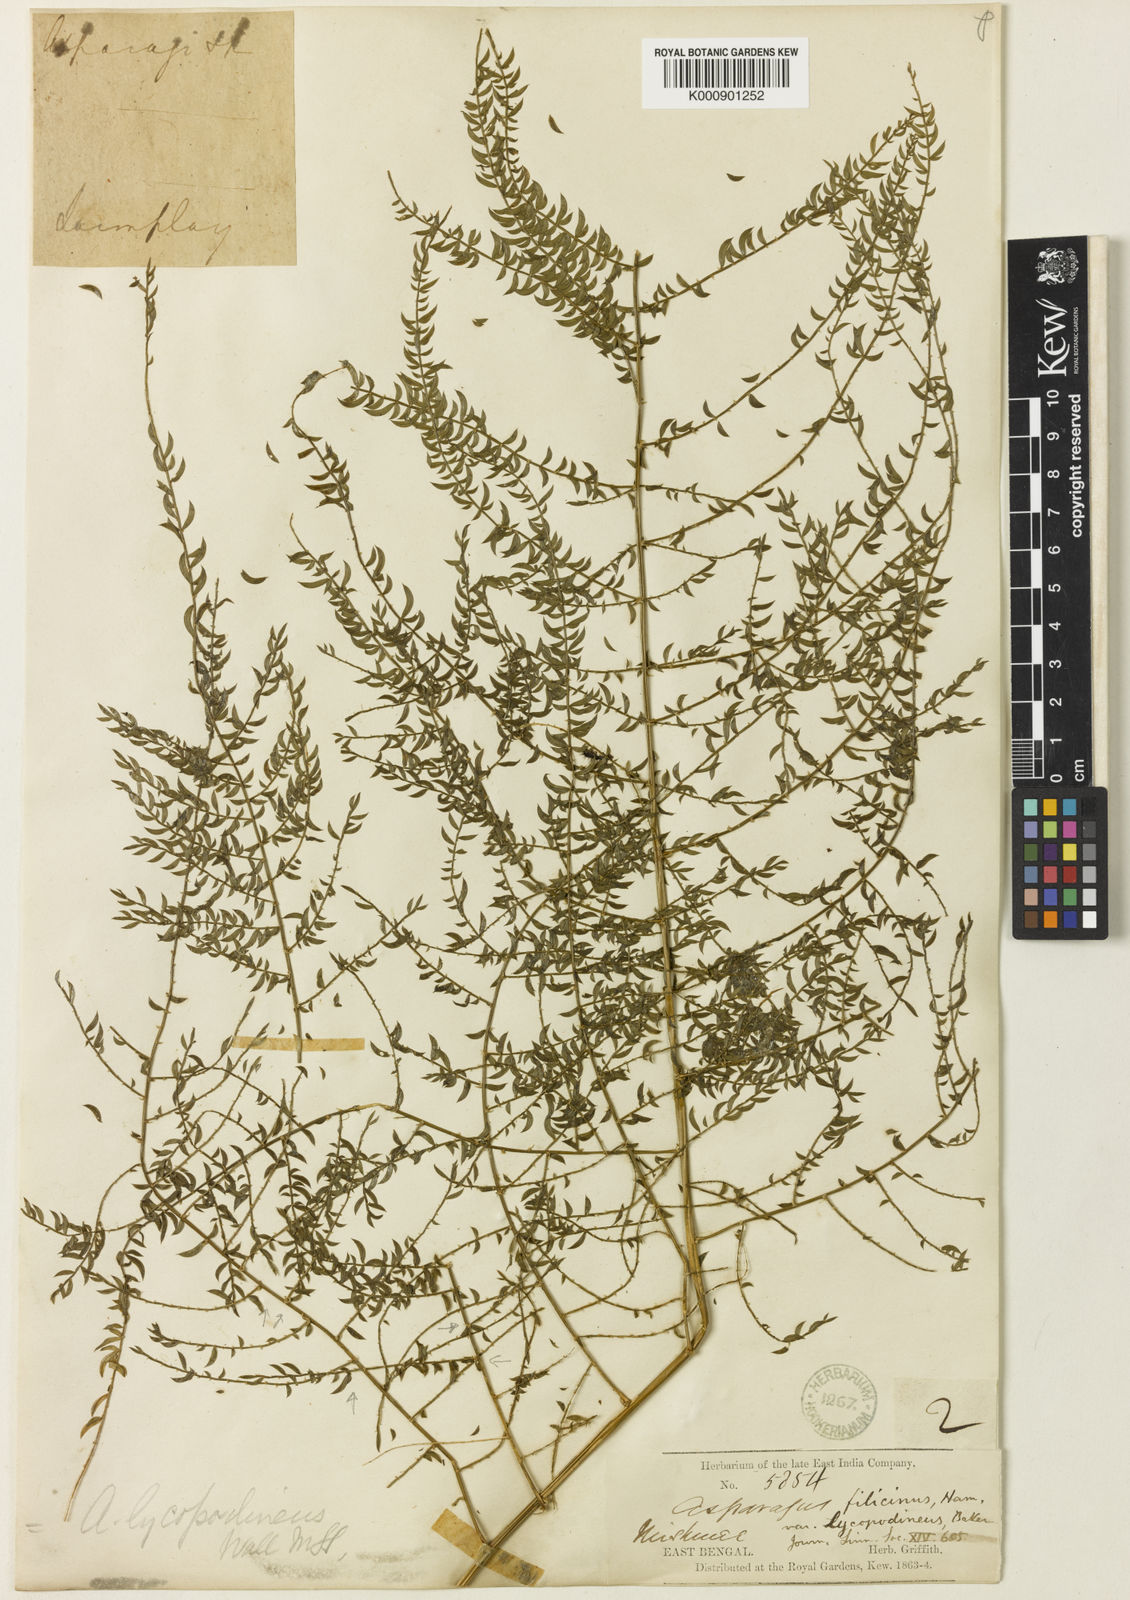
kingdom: Plantae
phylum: Tracheophyta
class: Liliopsida
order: Asparagales
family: Asparagaceae
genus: Asparagus
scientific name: Asparagus filicinus
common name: Fern asparagus
